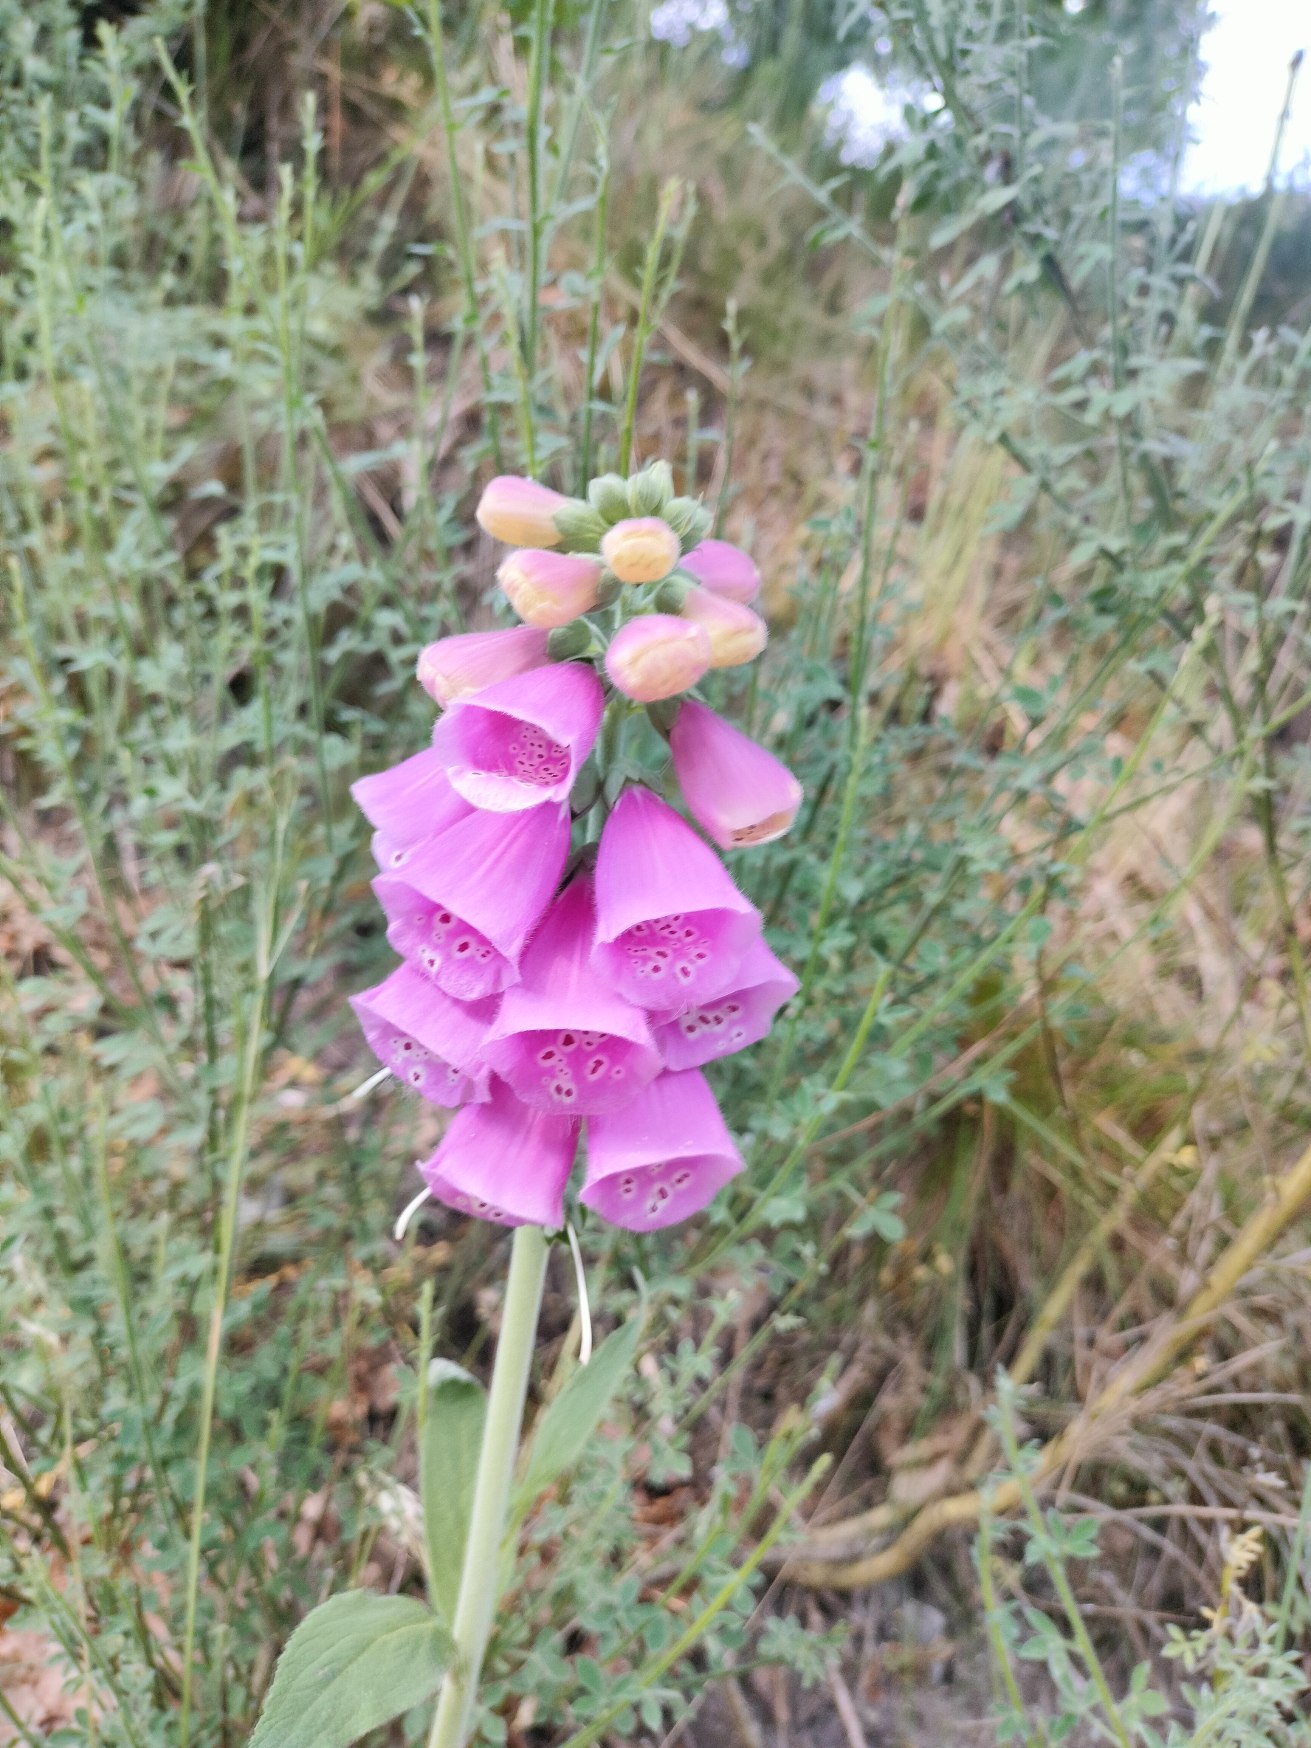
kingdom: Plantae
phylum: Tracheophyta
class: Magnoliopsida
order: Lamiales
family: Plantaginaceae
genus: Digitalis
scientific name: Digitalis purpurea
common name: Almindelig fingerbøl
